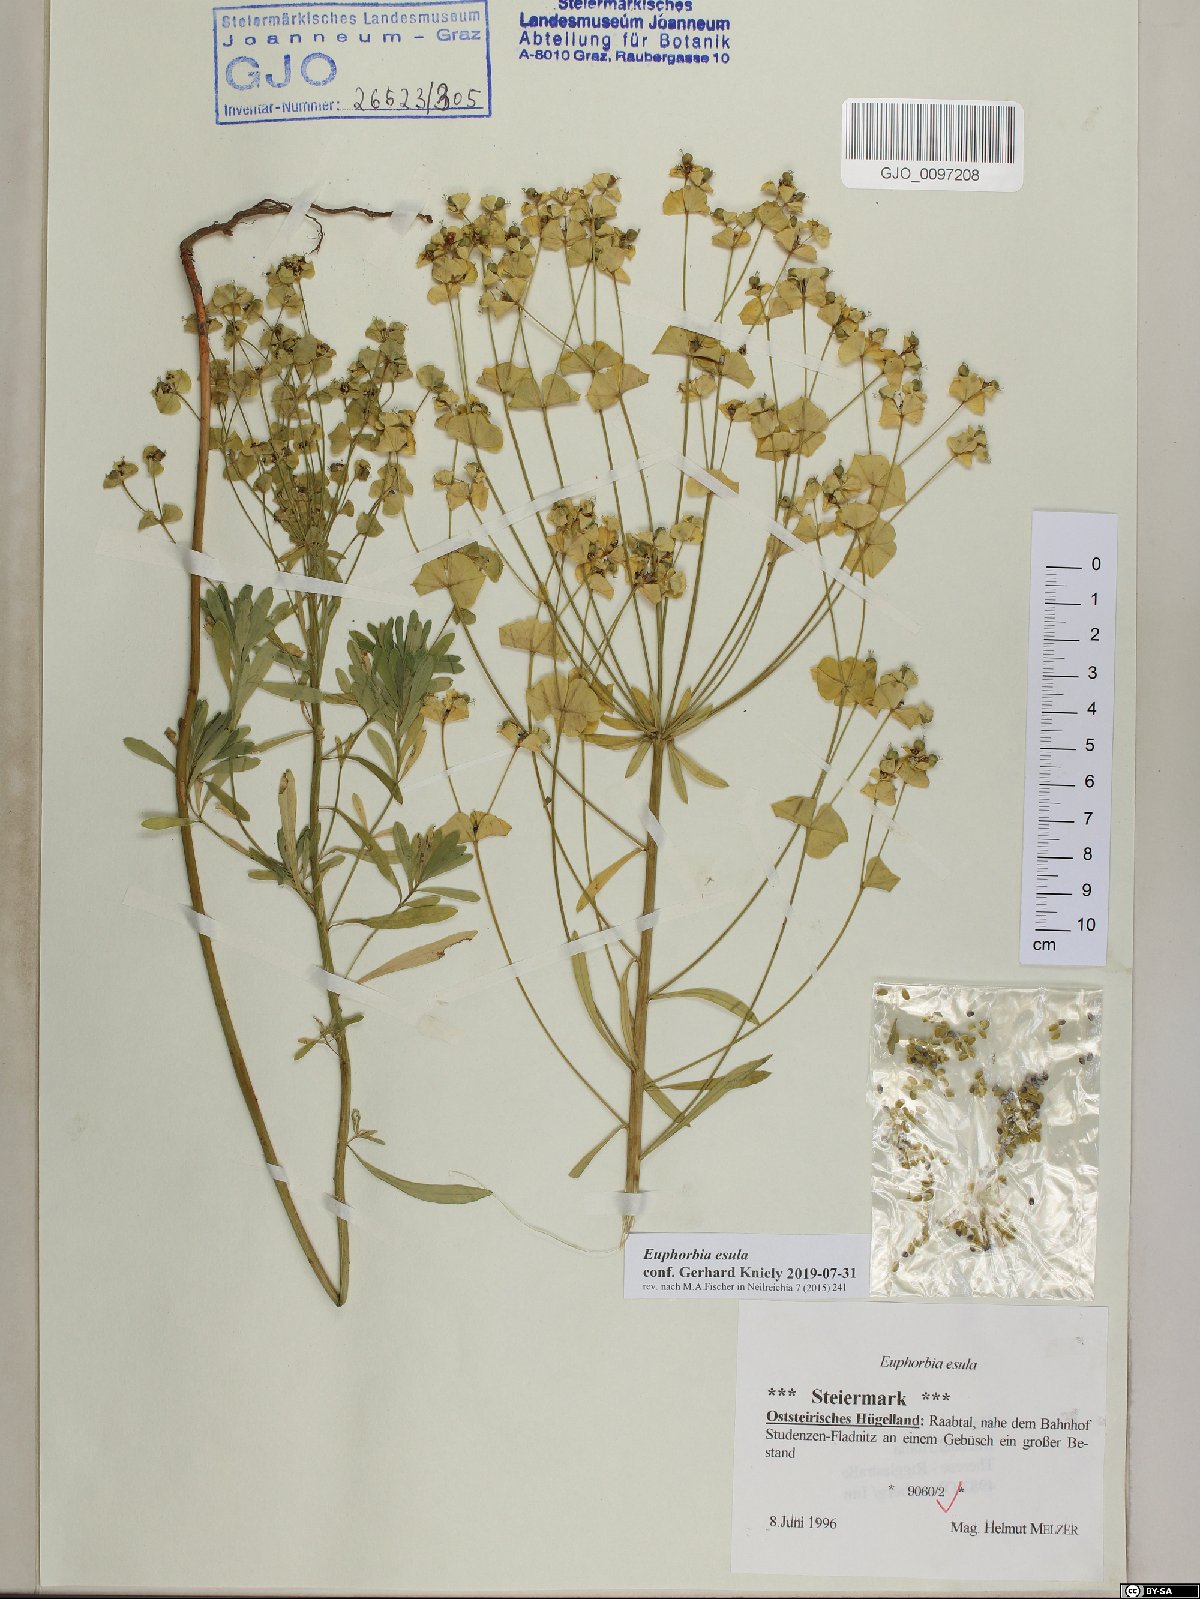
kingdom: Plantae
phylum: Tracheophyta
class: Magnoliopsida
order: Malpighiales
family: Euphorbiaceae
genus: Euphorbia
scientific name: Euphorbia esula
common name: Leafy spurge
